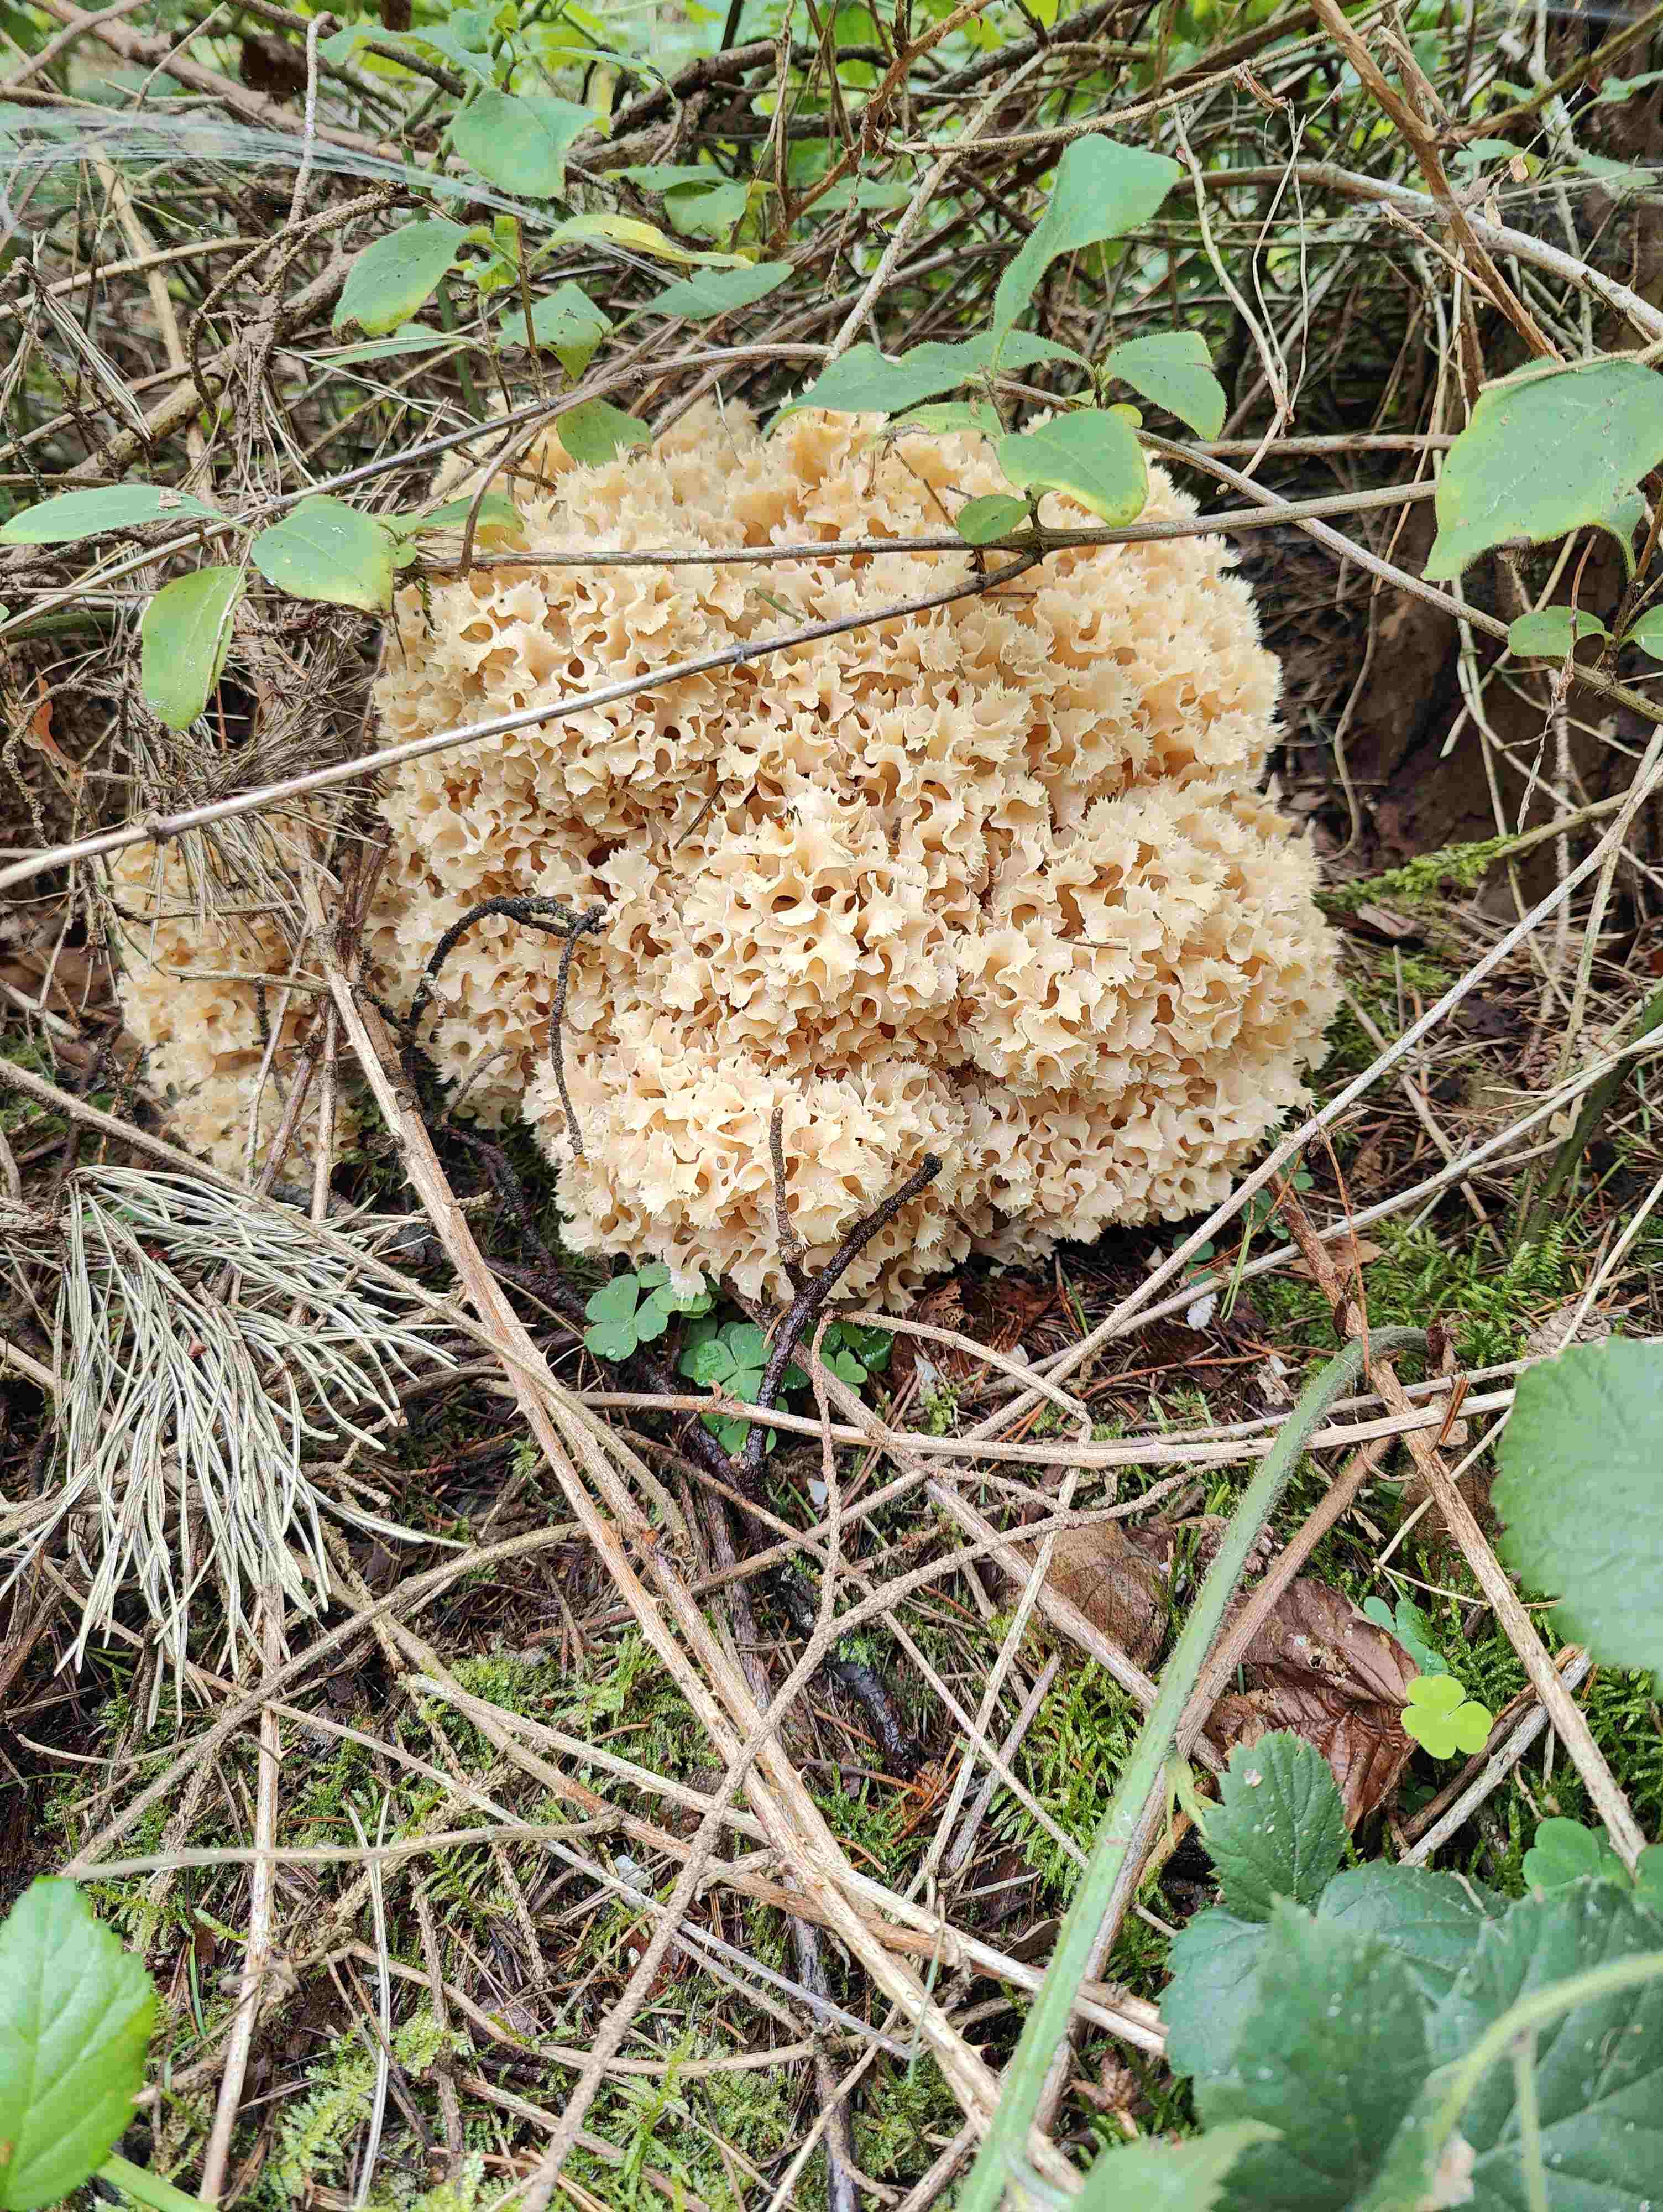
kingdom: Fungi
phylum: Basidiomycota
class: Agaricomycetes
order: Polyporales
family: Sparassidaceae
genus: Sparassis
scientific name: Sparassis crispa
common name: kruset blomkålssvamp
